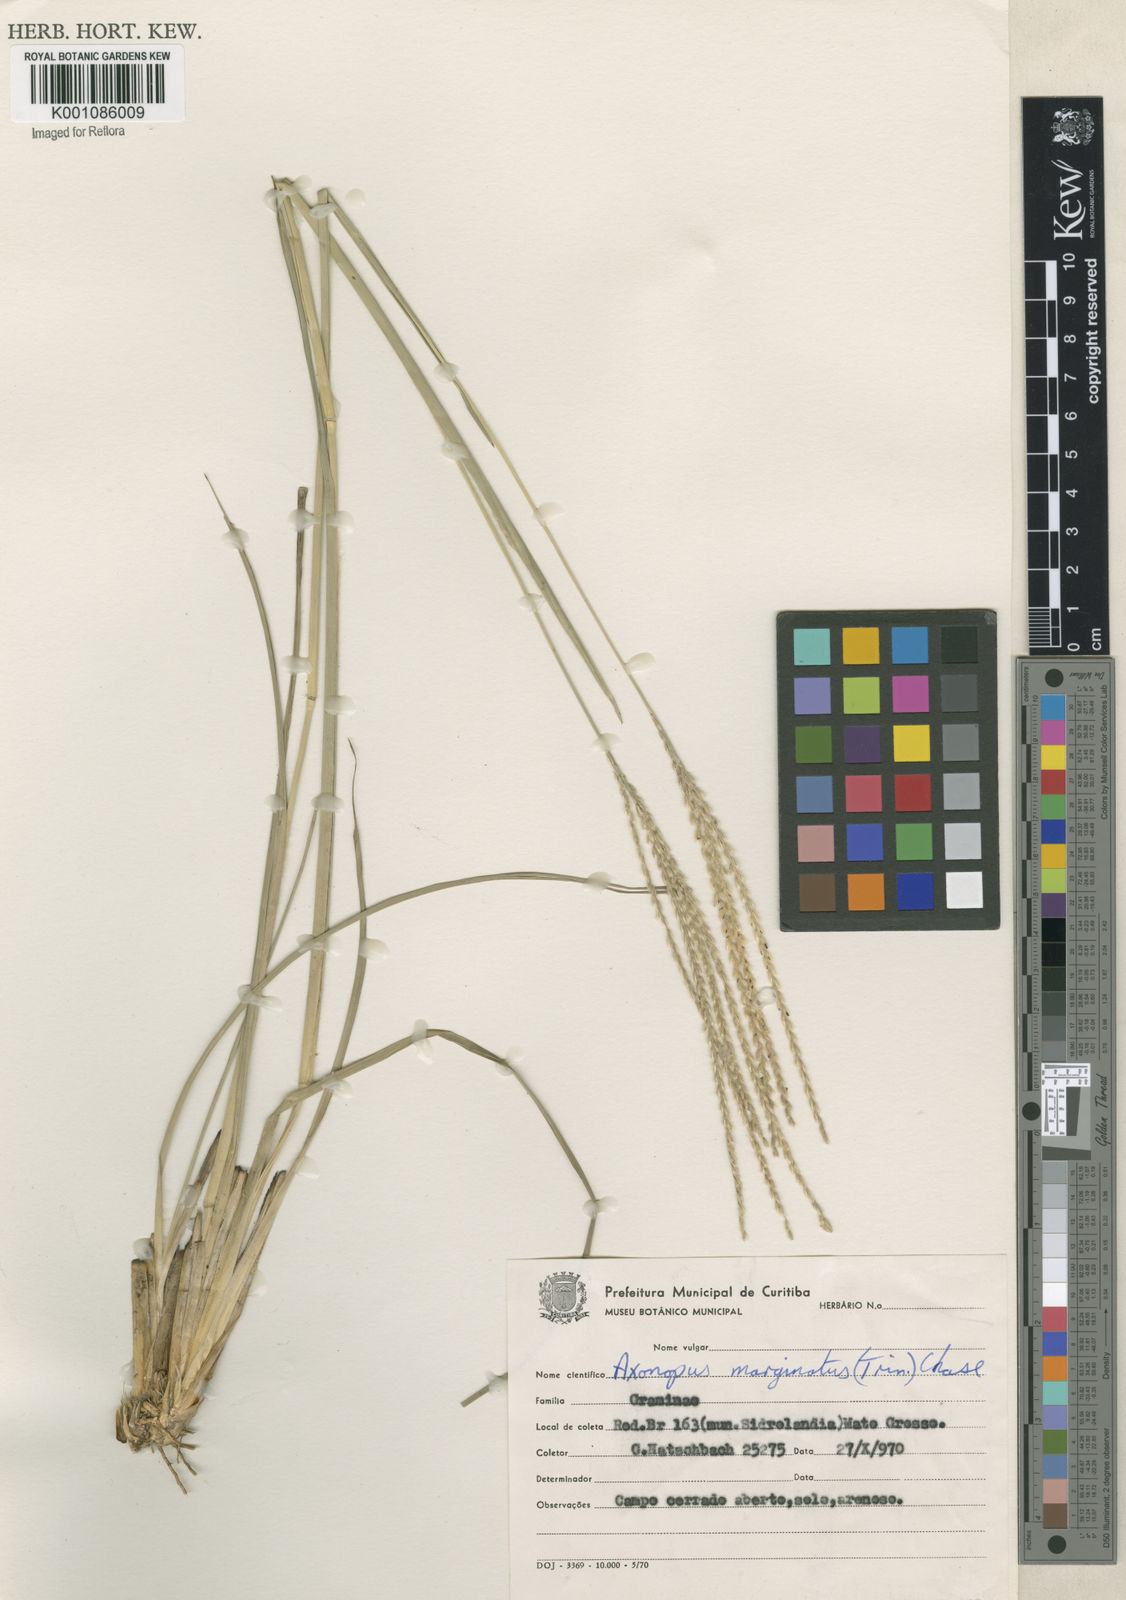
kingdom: Plantae
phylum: Tracheophyta
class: Liliopsida
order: Poales
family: Poaceae
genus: Axonopus
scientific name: Axonopus
